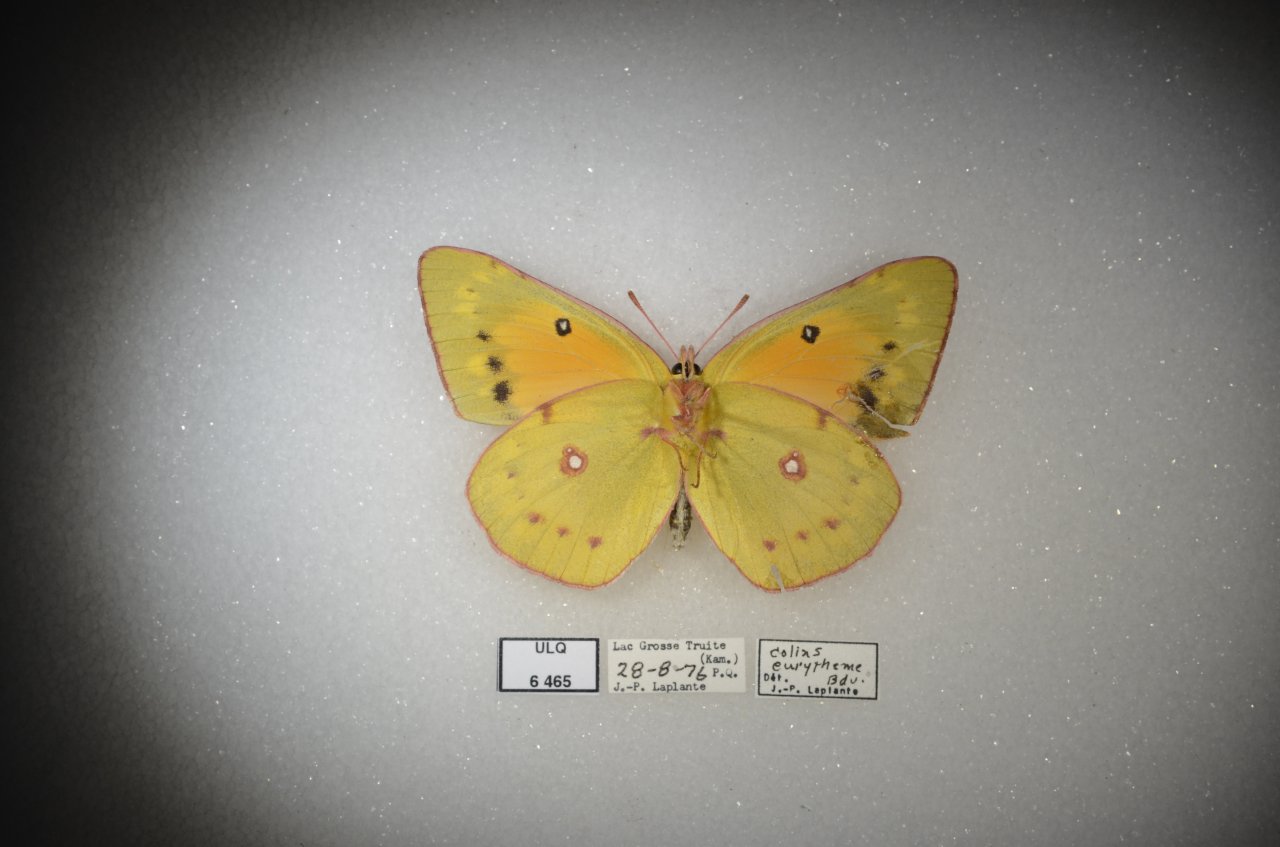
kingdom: Animalia
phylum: Arthropoda
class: Insecta
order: Lepidoptera
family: Pieridae
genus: Colias
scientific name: Colias eurytheme
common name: Orange Sulphur
